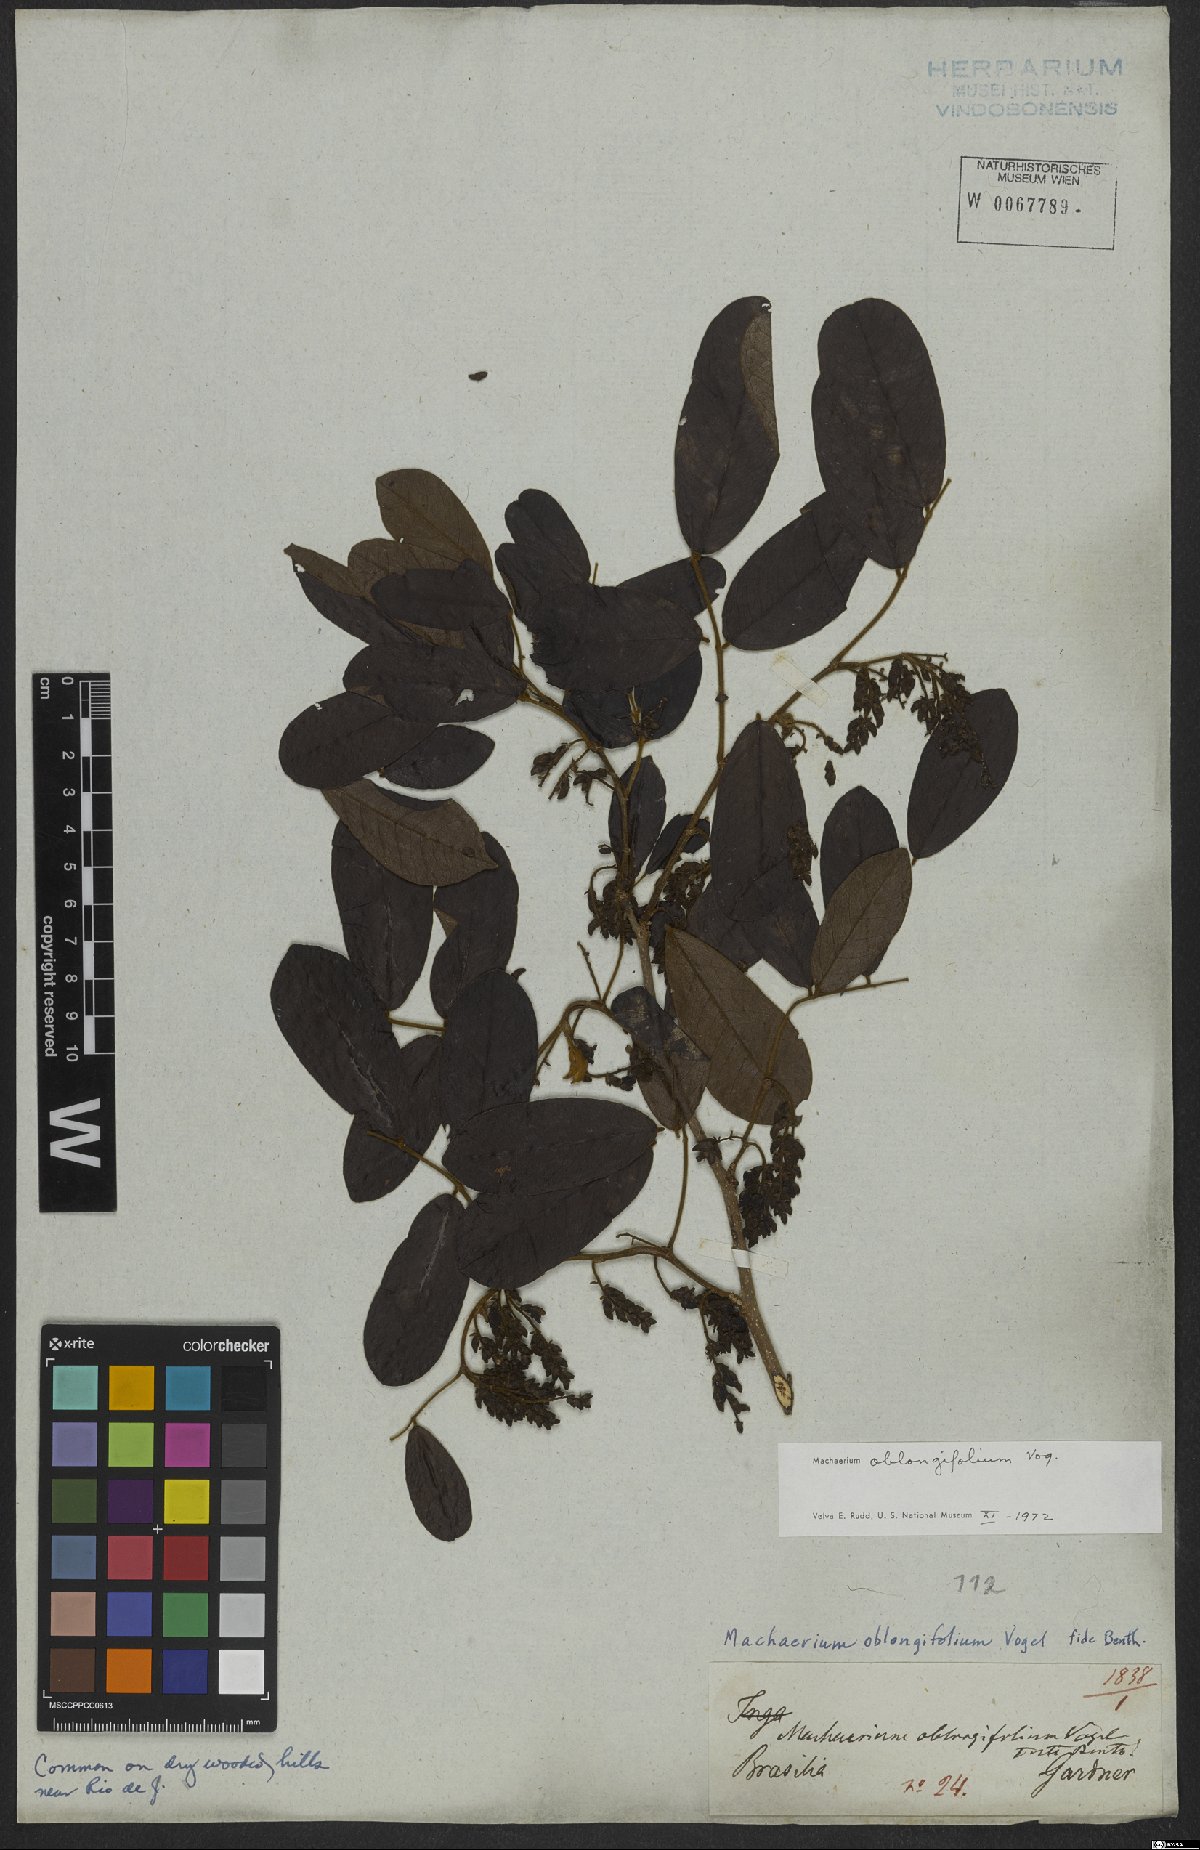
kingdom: Plantae
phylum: Tracheophyta
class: Magnoliopsida
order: Fabales
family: Fabaceae
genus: Machaerium
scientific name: Machaerium oblongifolium
